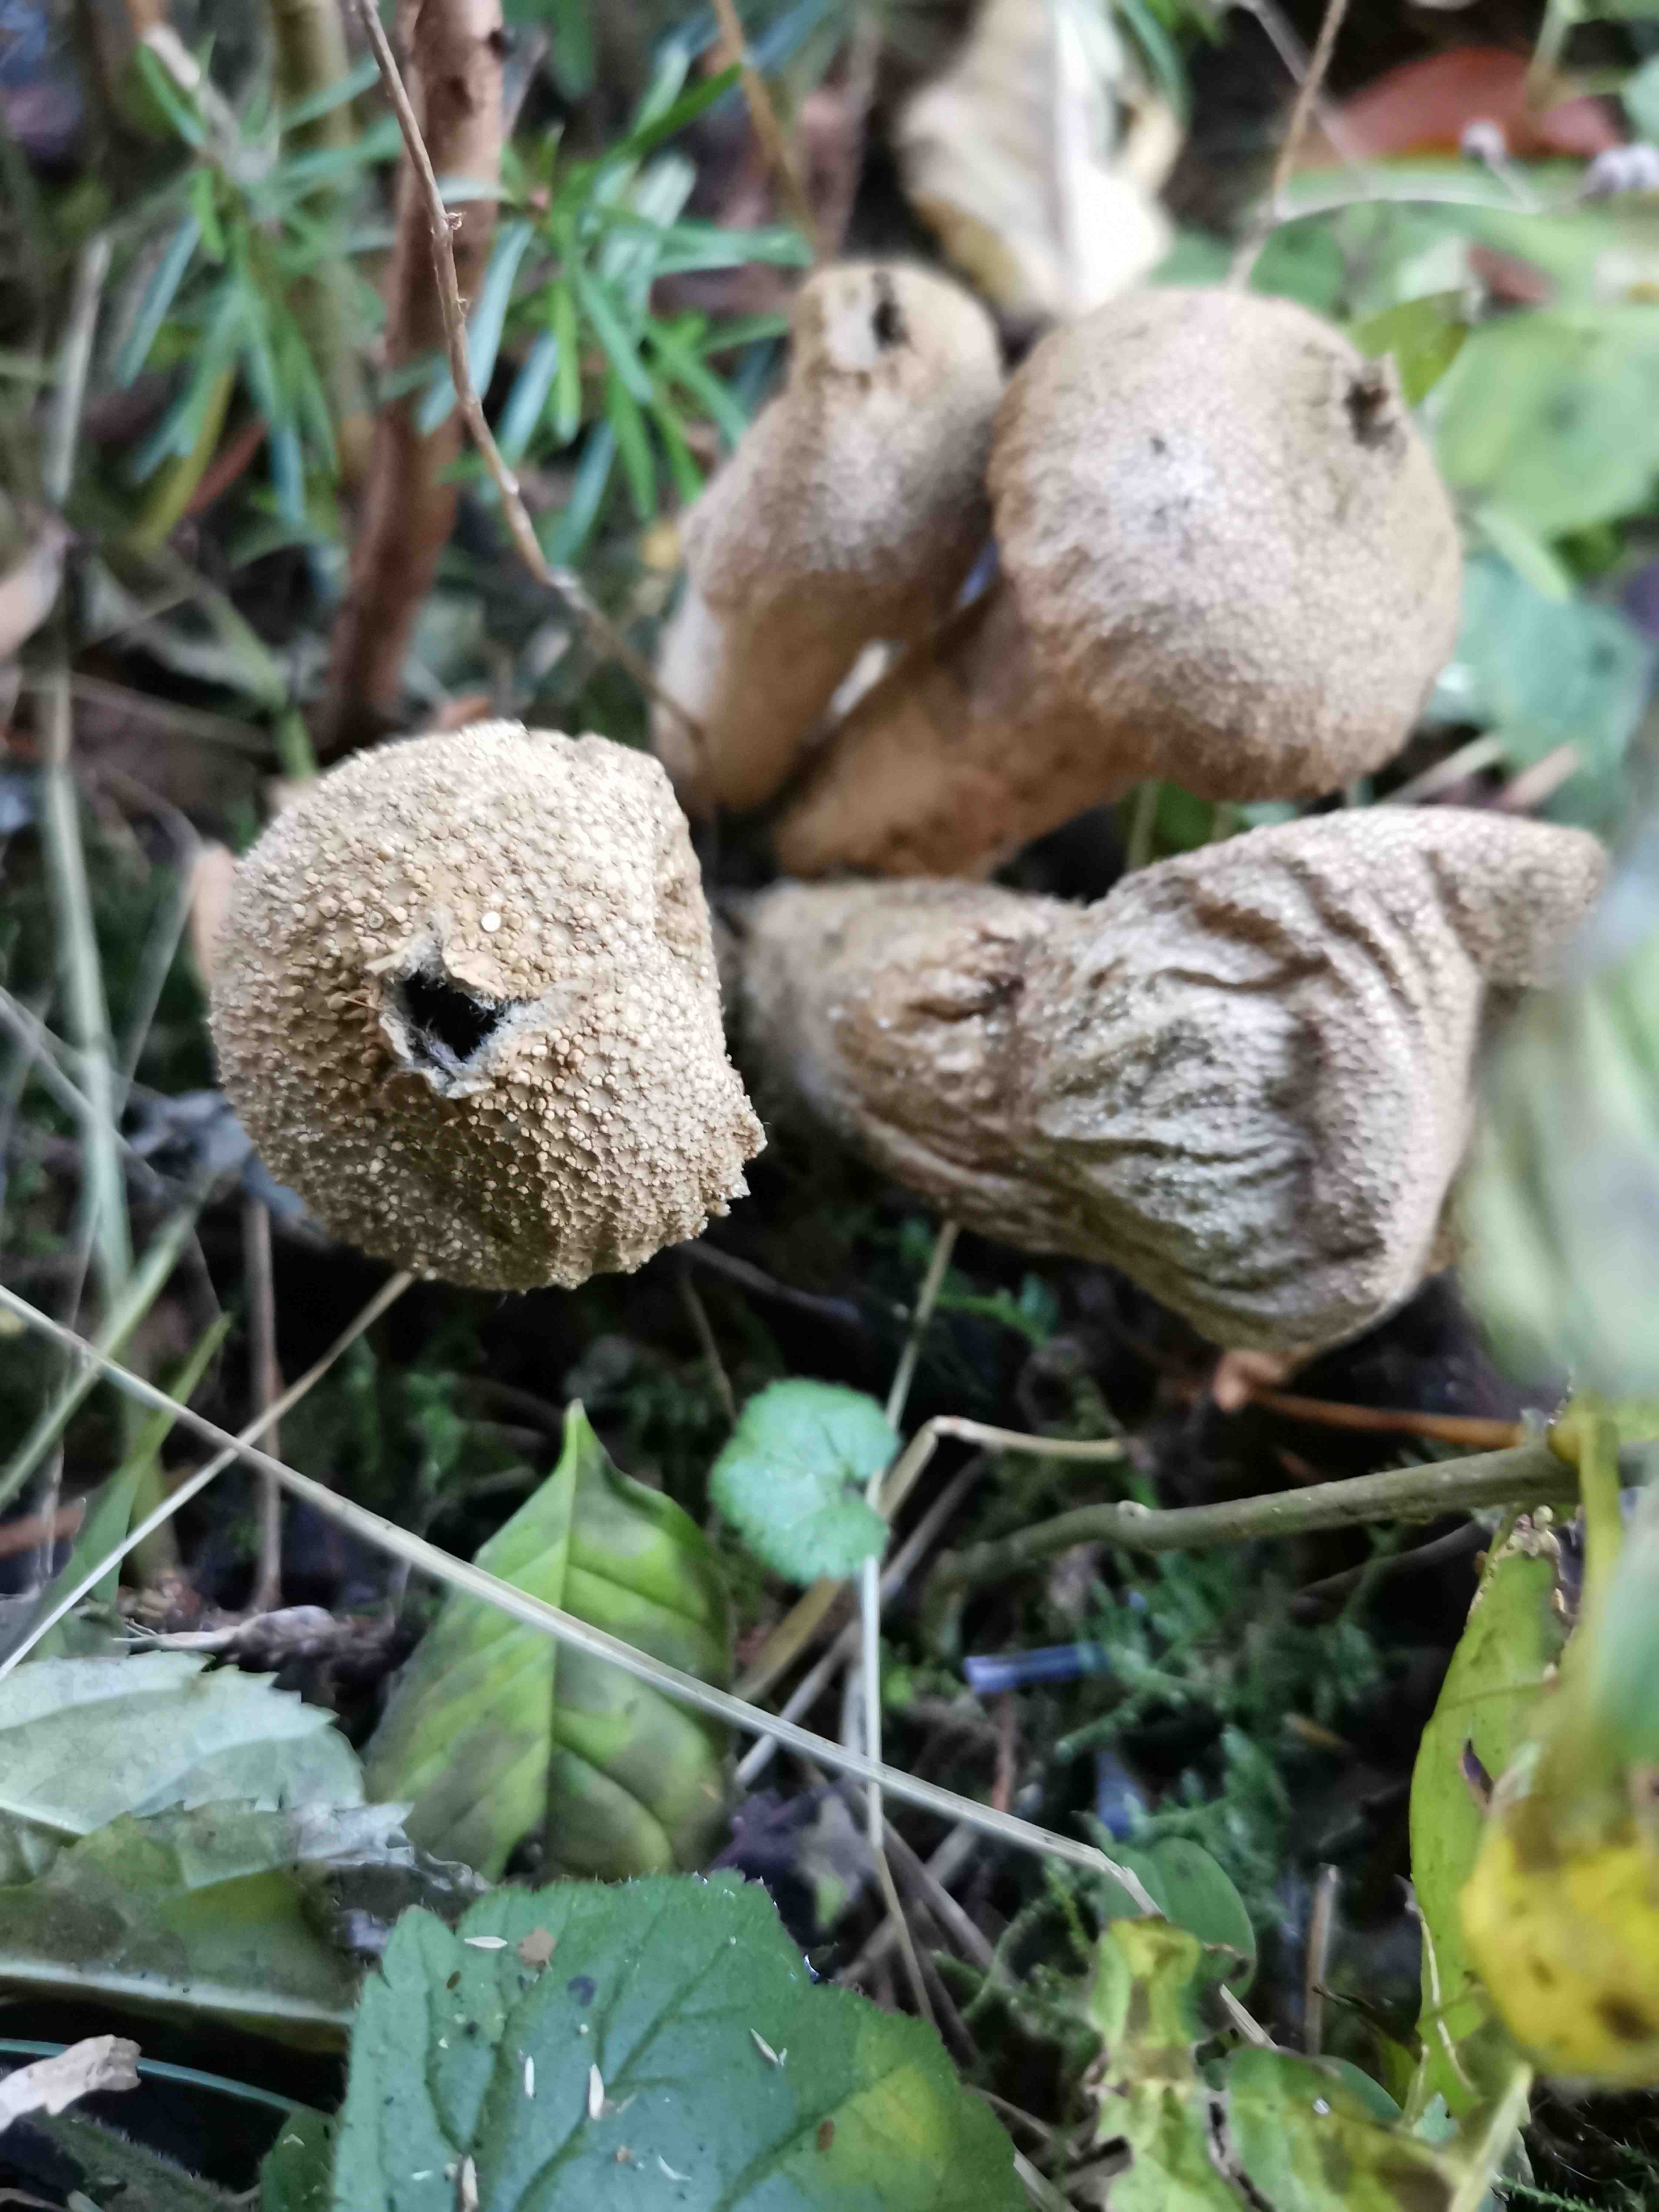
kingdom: Fungi
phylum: Basidiomycota
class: Agaricomycetes
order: Agaricales
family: Lycoperdaceae
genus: Lycoperdon
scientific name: Lycoperdon perlatum
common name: krystal-støvbold
